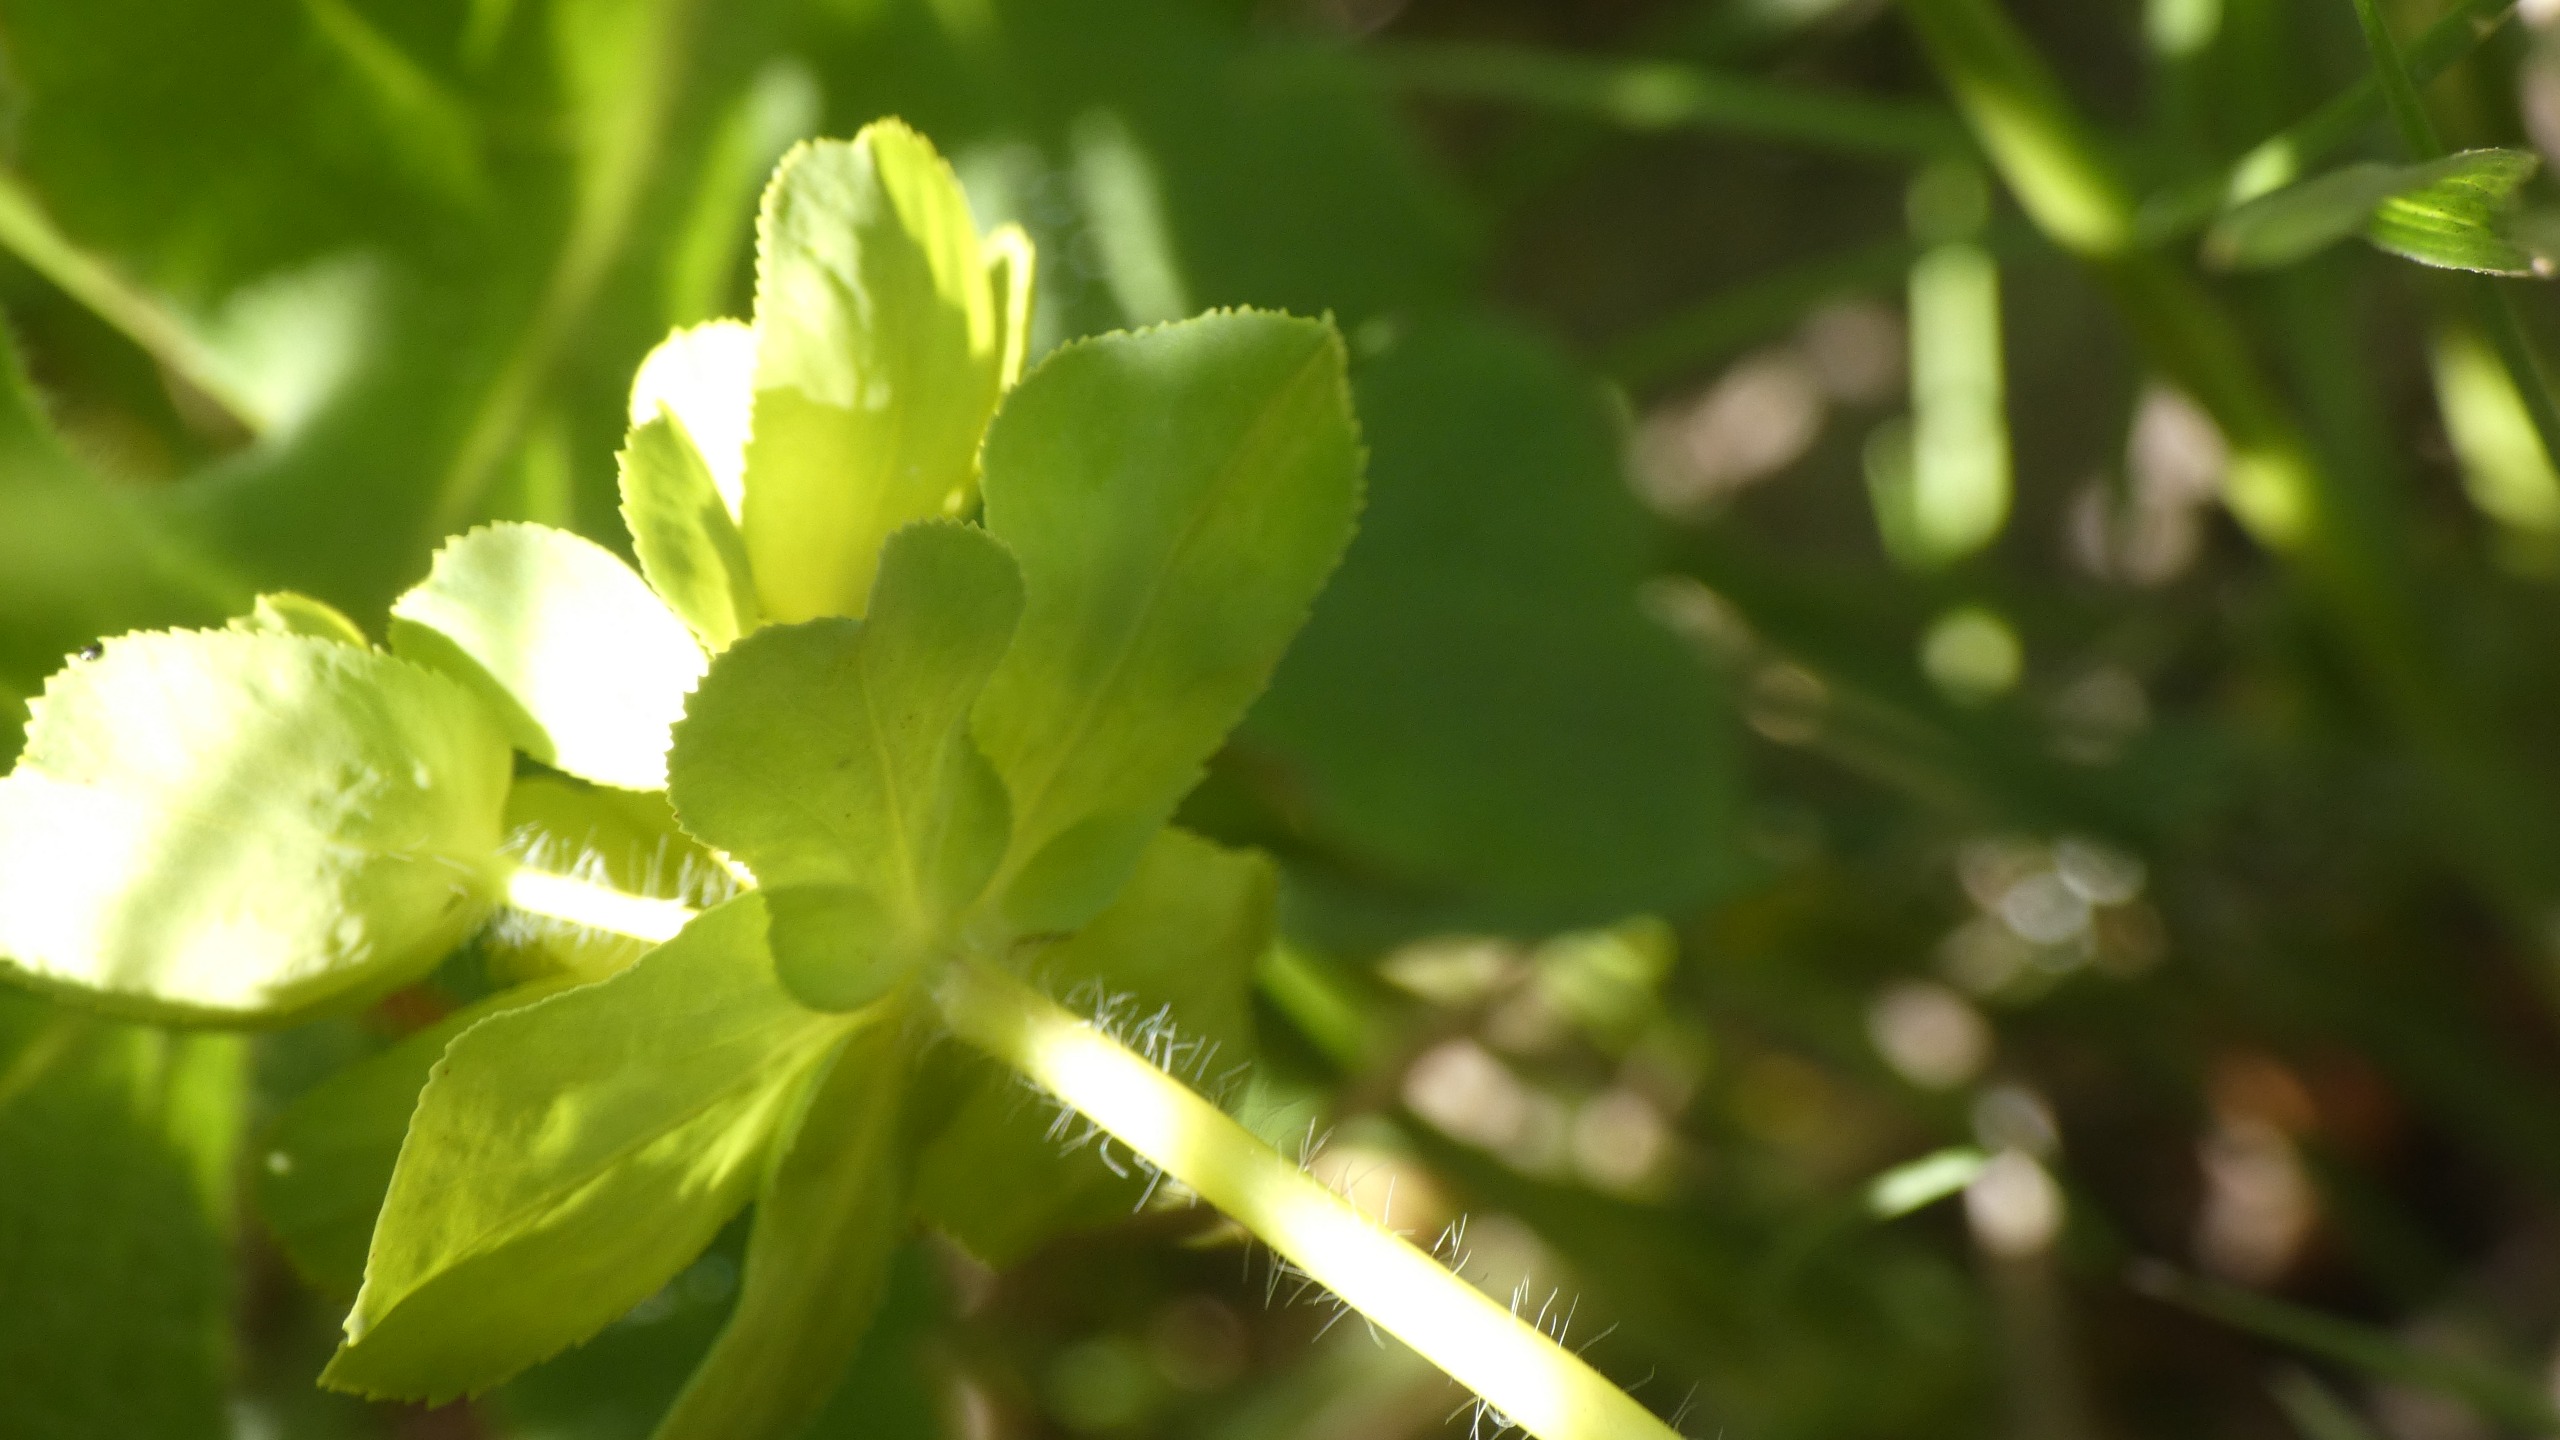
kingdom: Plantae
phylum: Tracheophyta
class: Magnoliopsida
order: Malpighiales
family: Euphorbiaceae
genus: Euphorbia
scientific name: Euphorbia helioscopia
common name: Skærm-vortemælk
